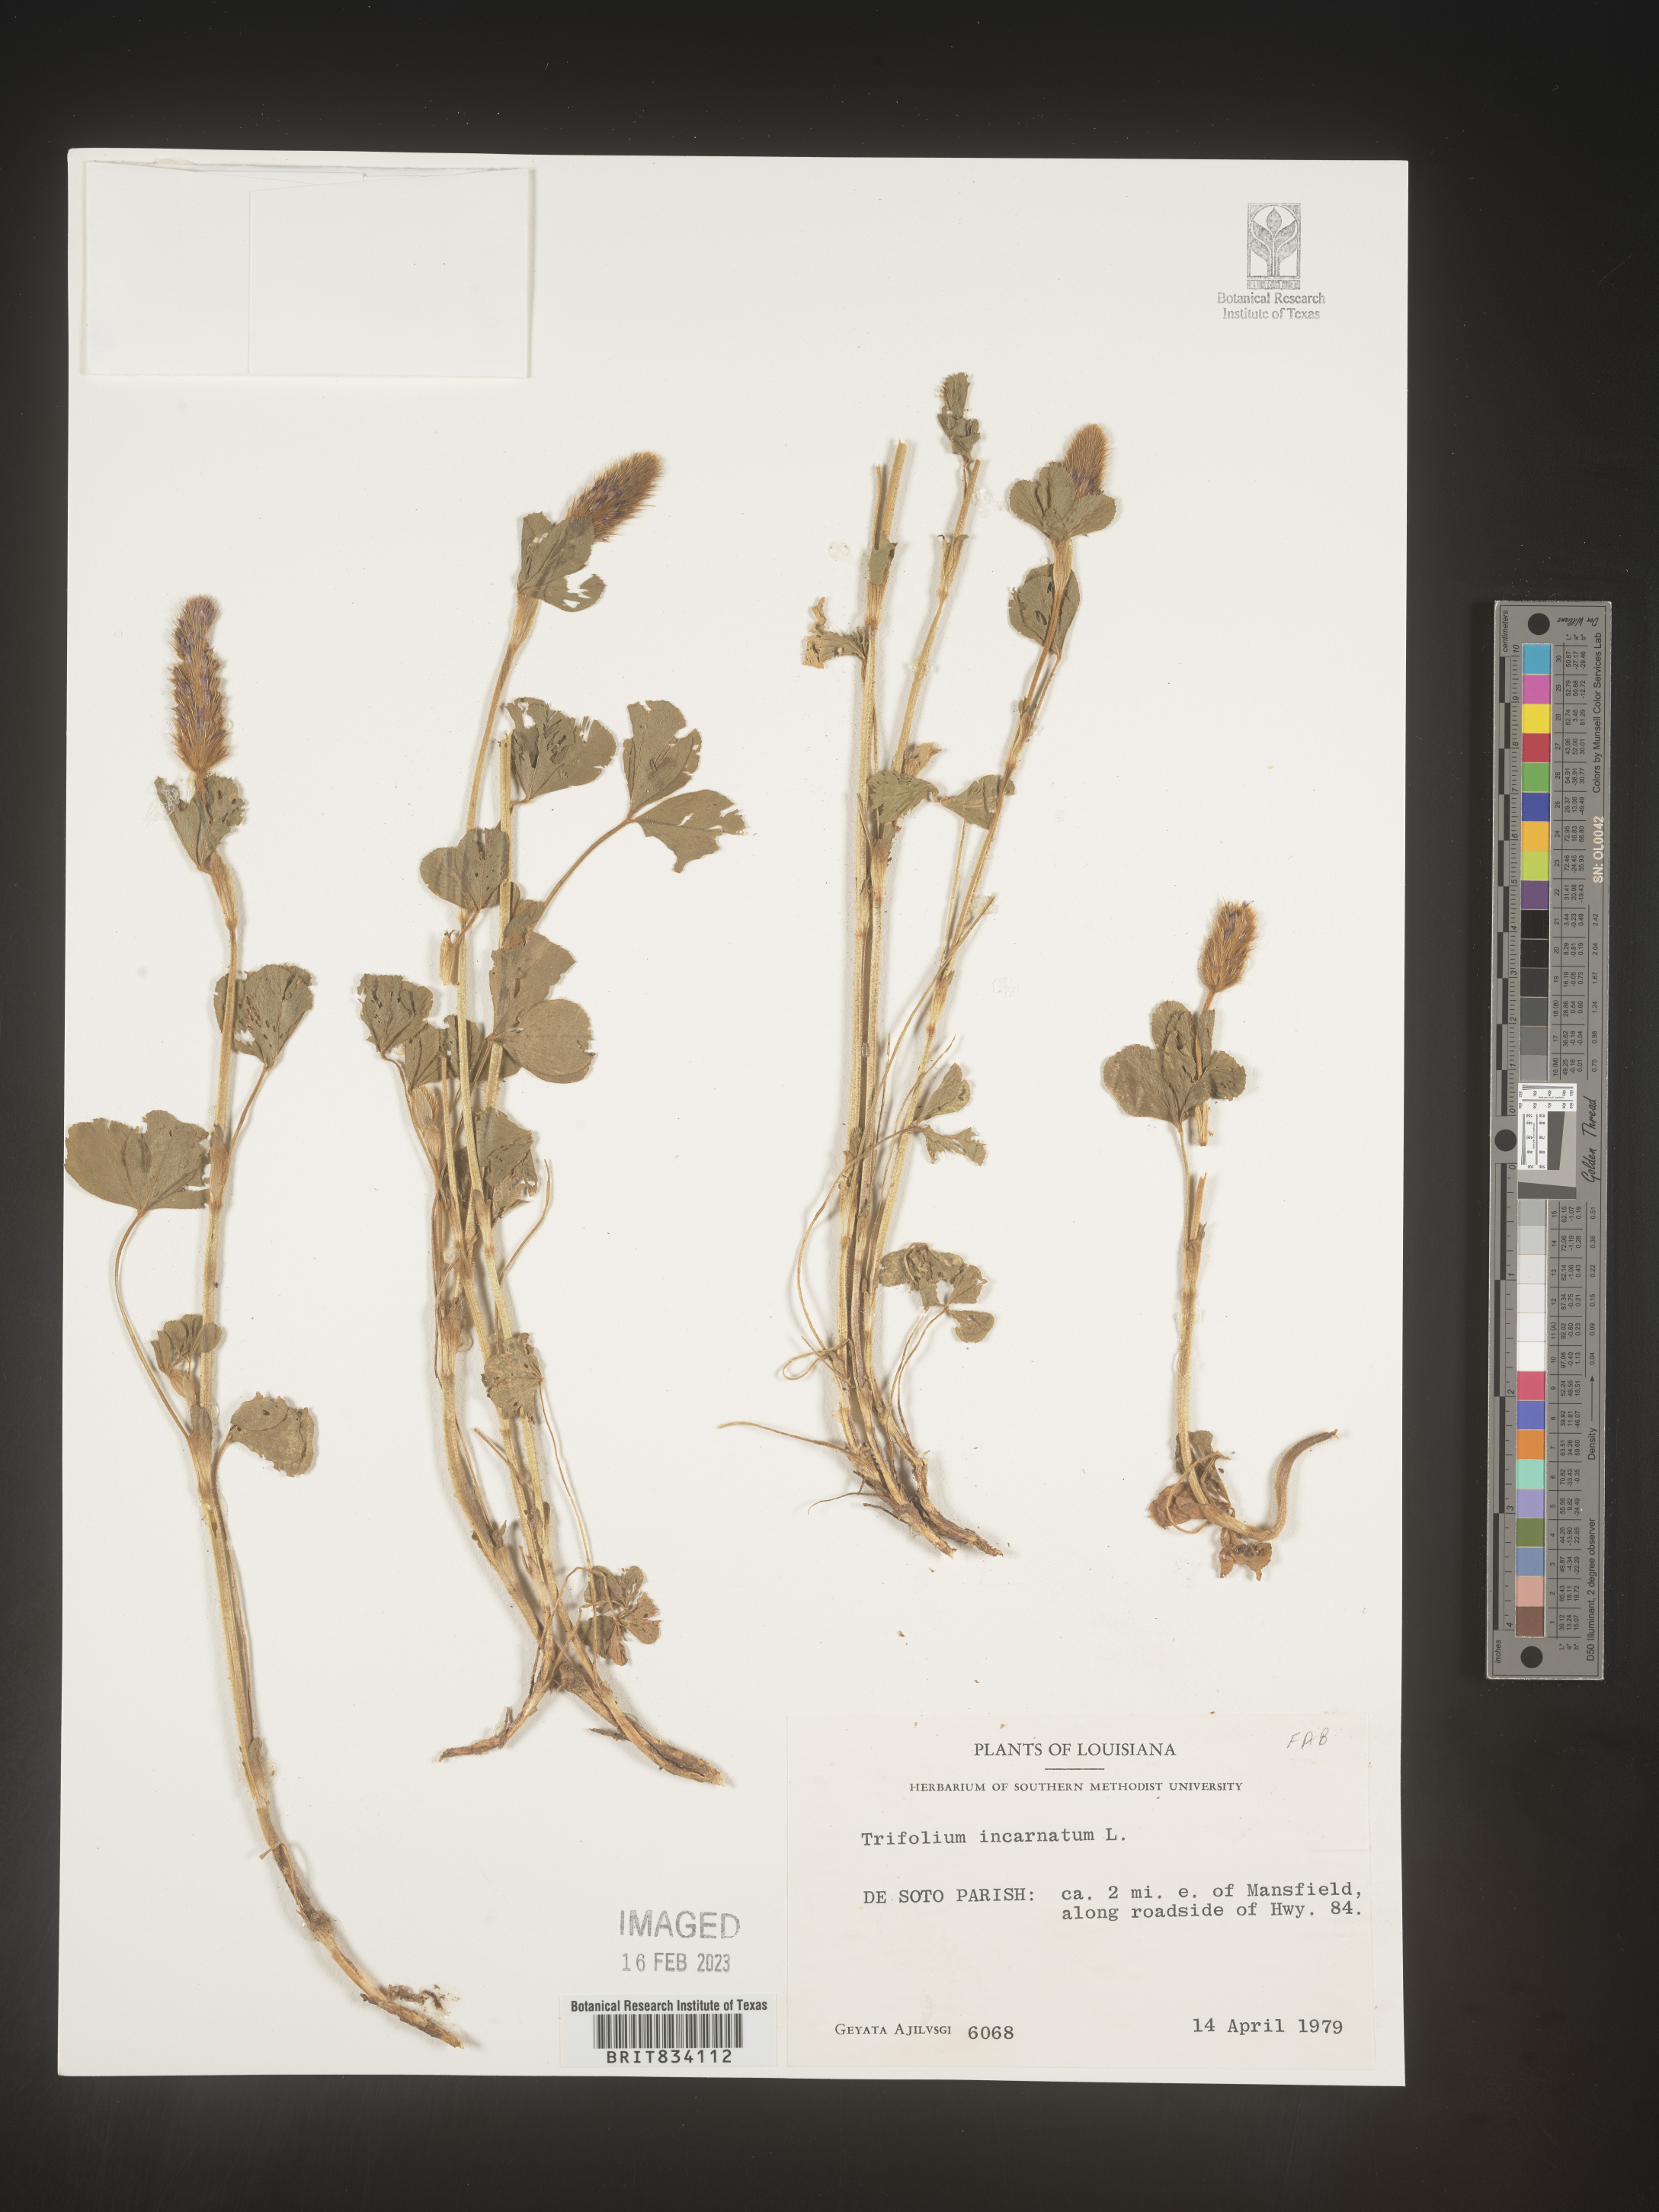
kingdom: Plantae
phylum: Tracheophyta
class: Magnoliopsida
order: Fabales
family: Fabaceae
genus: Trifolium
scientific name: Trifolium incarnatum
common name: Crimson clover
